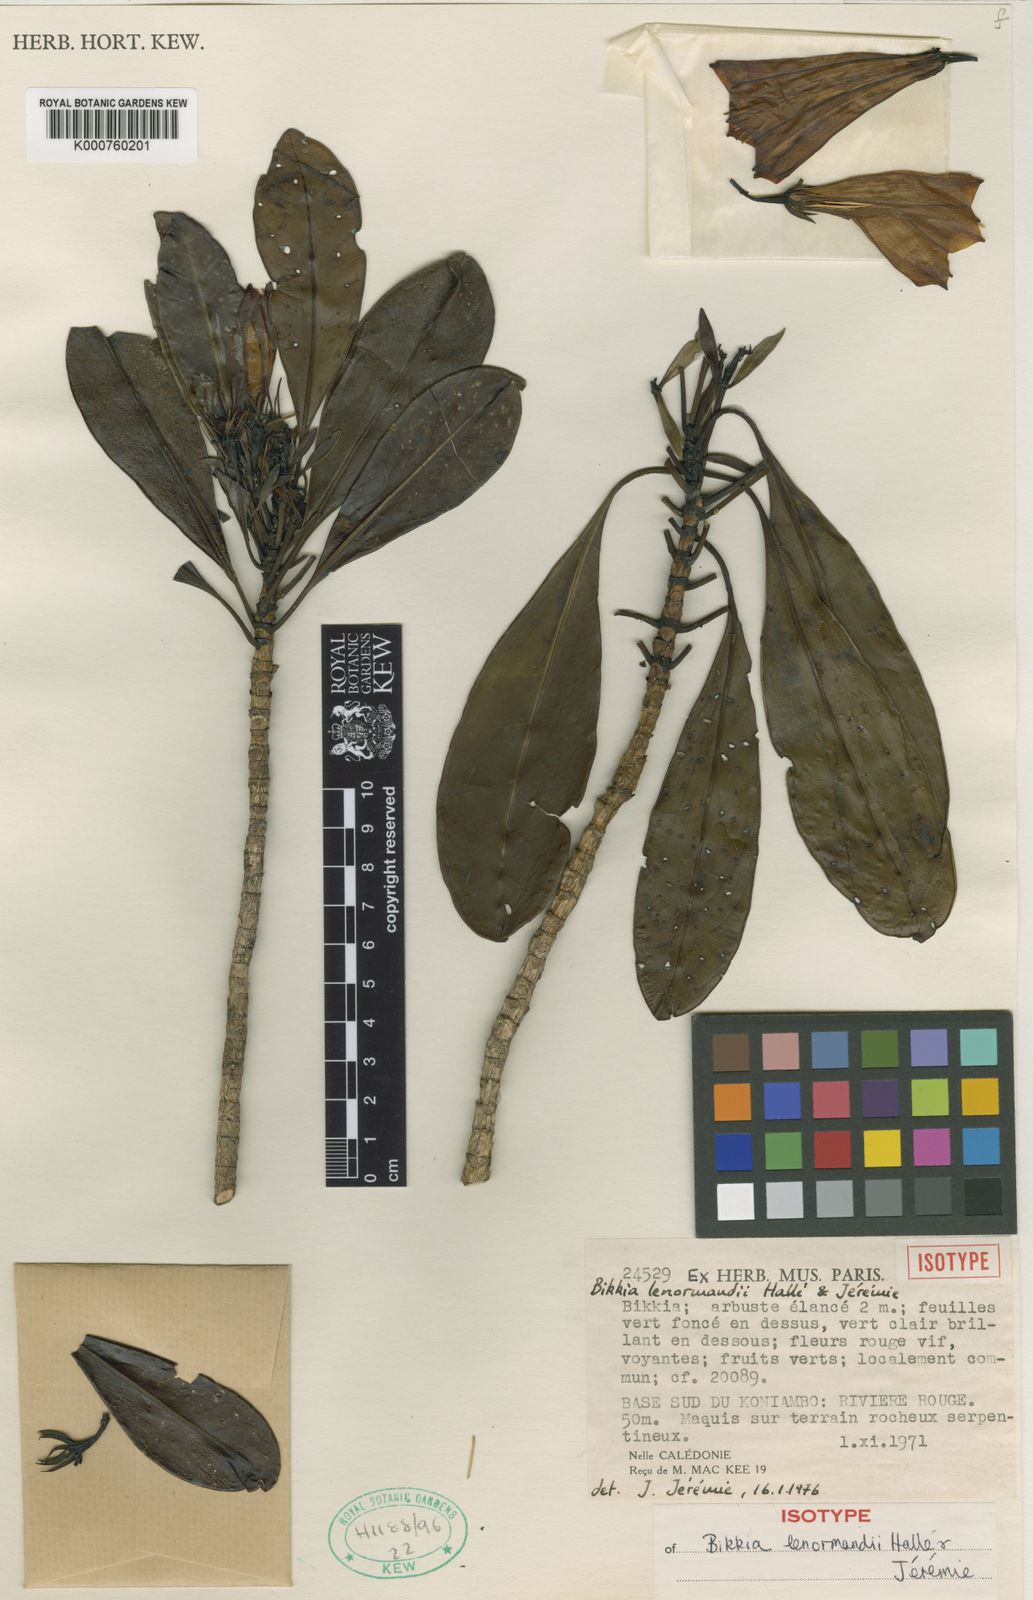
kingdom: Plantae
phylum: Tracheophyta
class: Magnoliopsida
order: Gentianales
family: Rubiaceae
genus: Thiollierea
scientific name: Thiollierea
